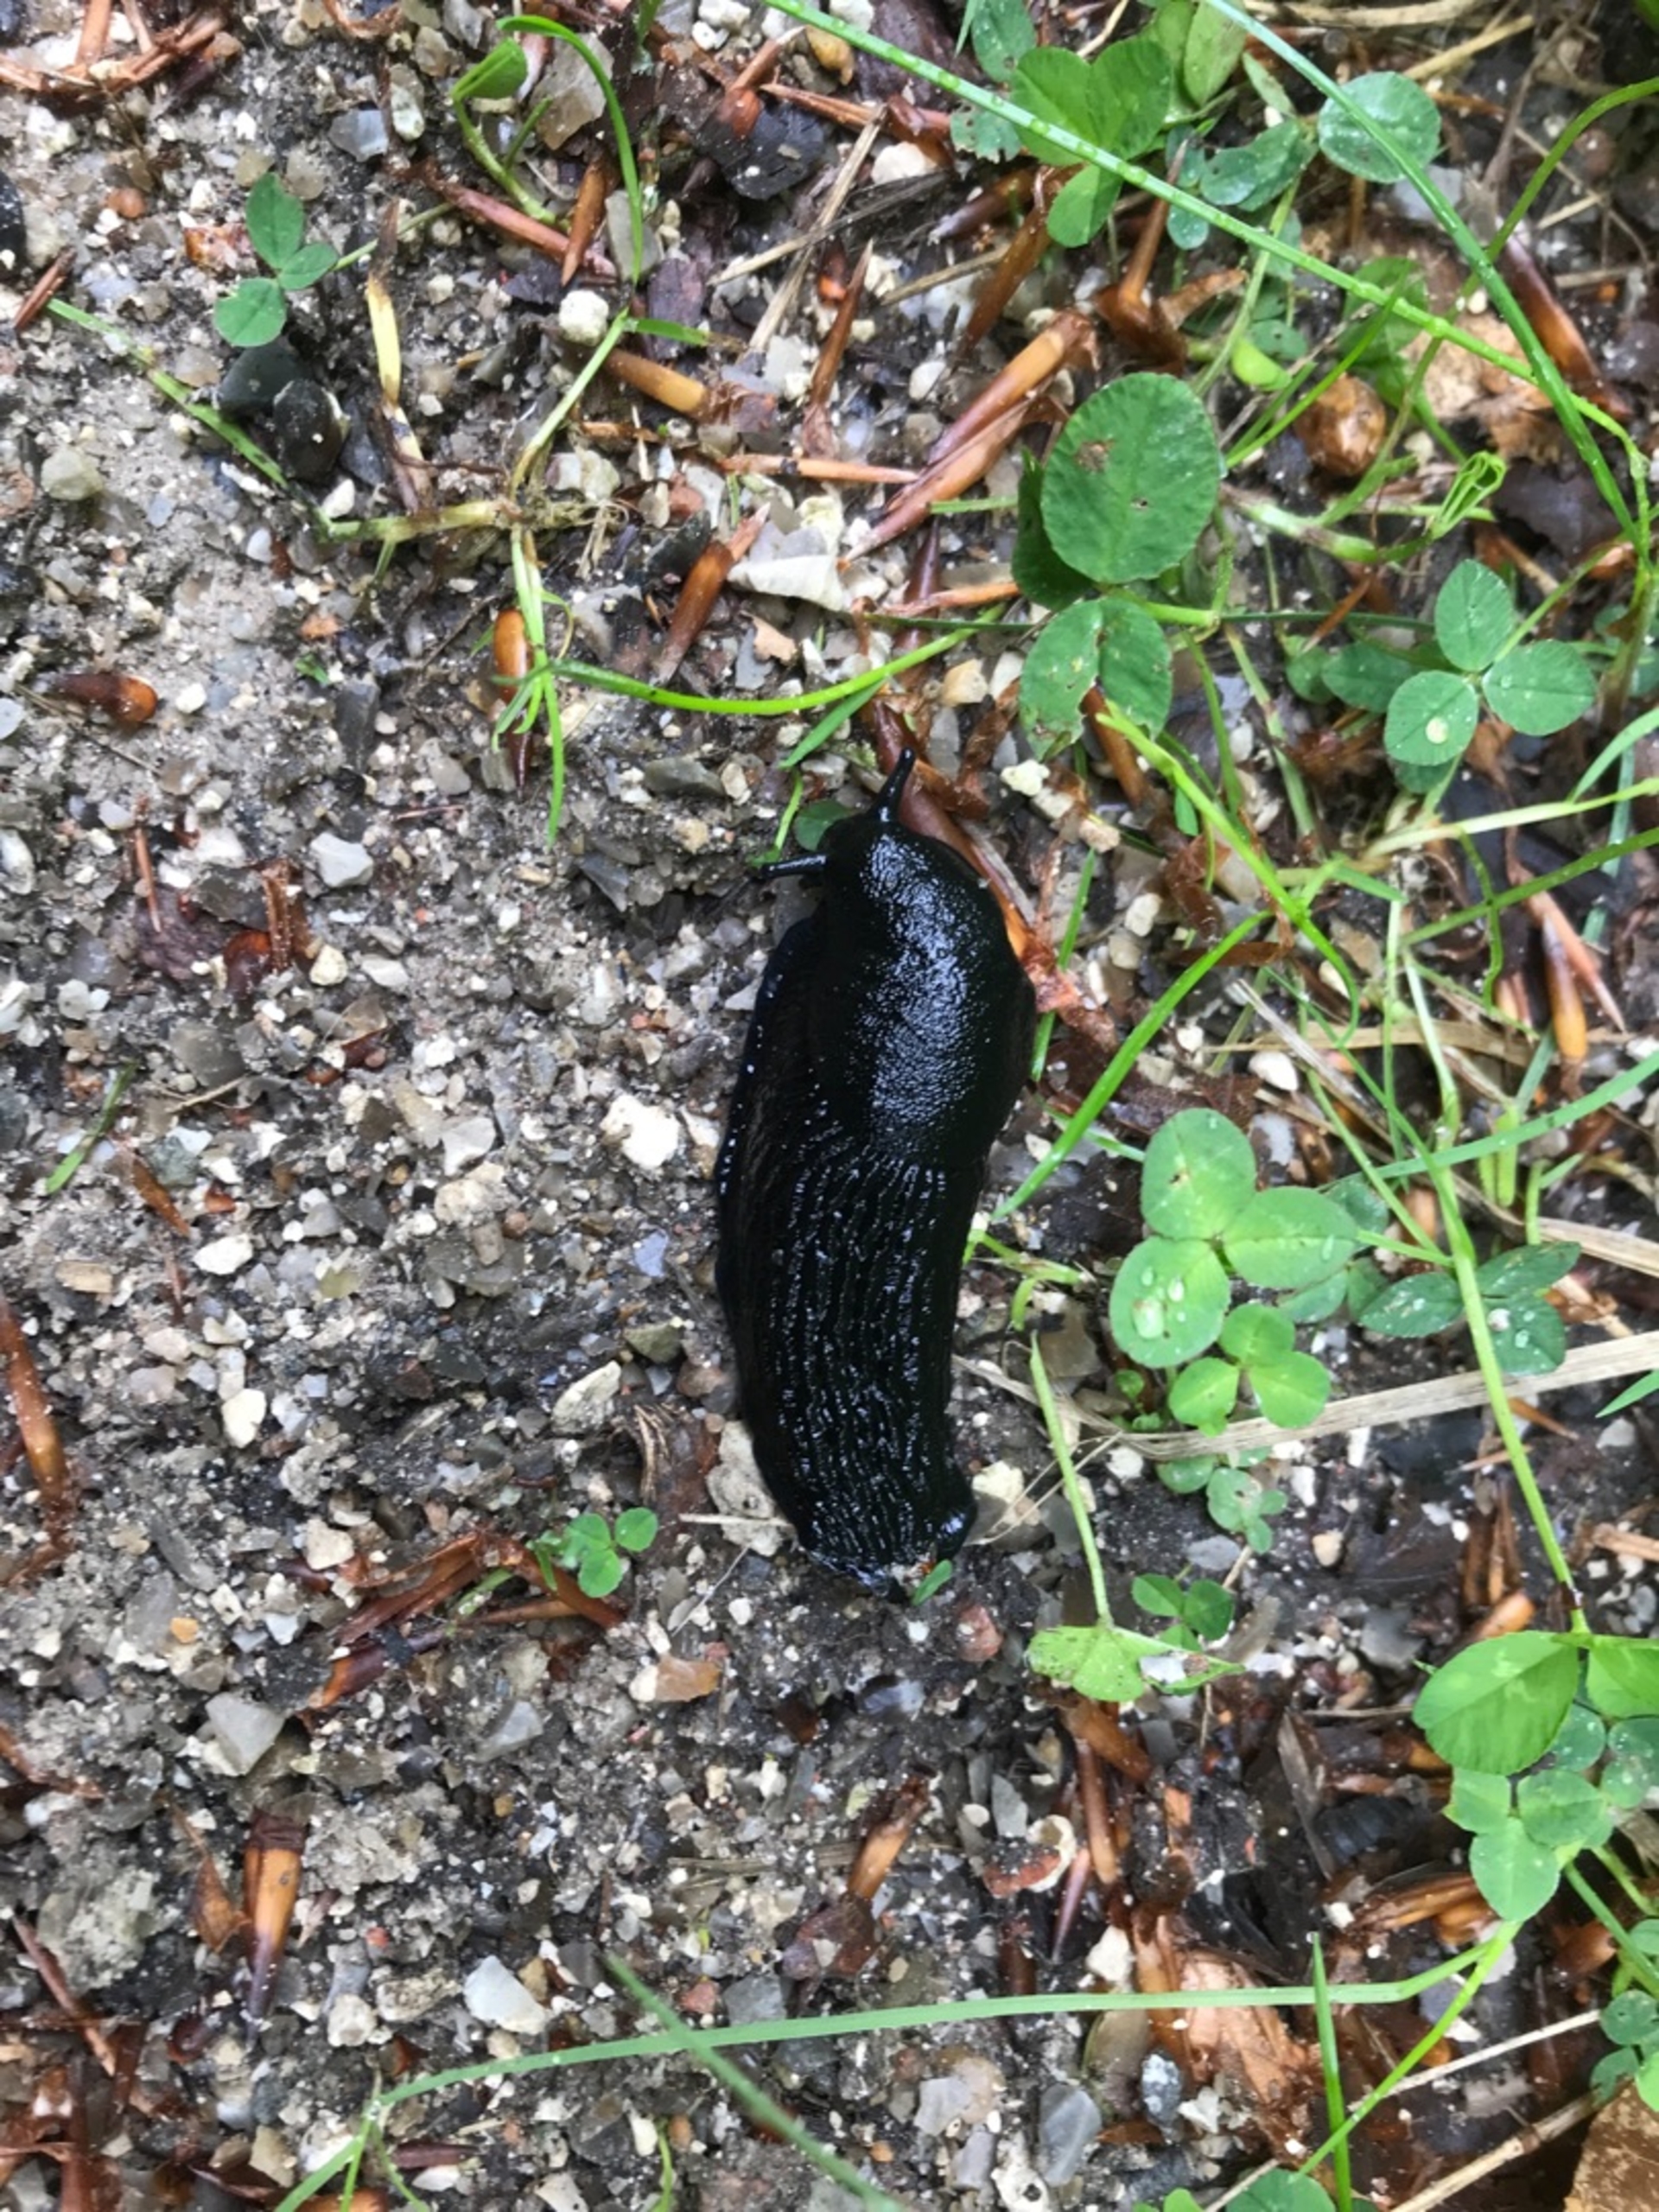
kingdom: Animalia
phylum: Mollusca
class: Gastropoda
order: Stylommatophora
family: Arionidae
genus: Arion
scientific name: Arion ater
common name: Sort skovsnegl
